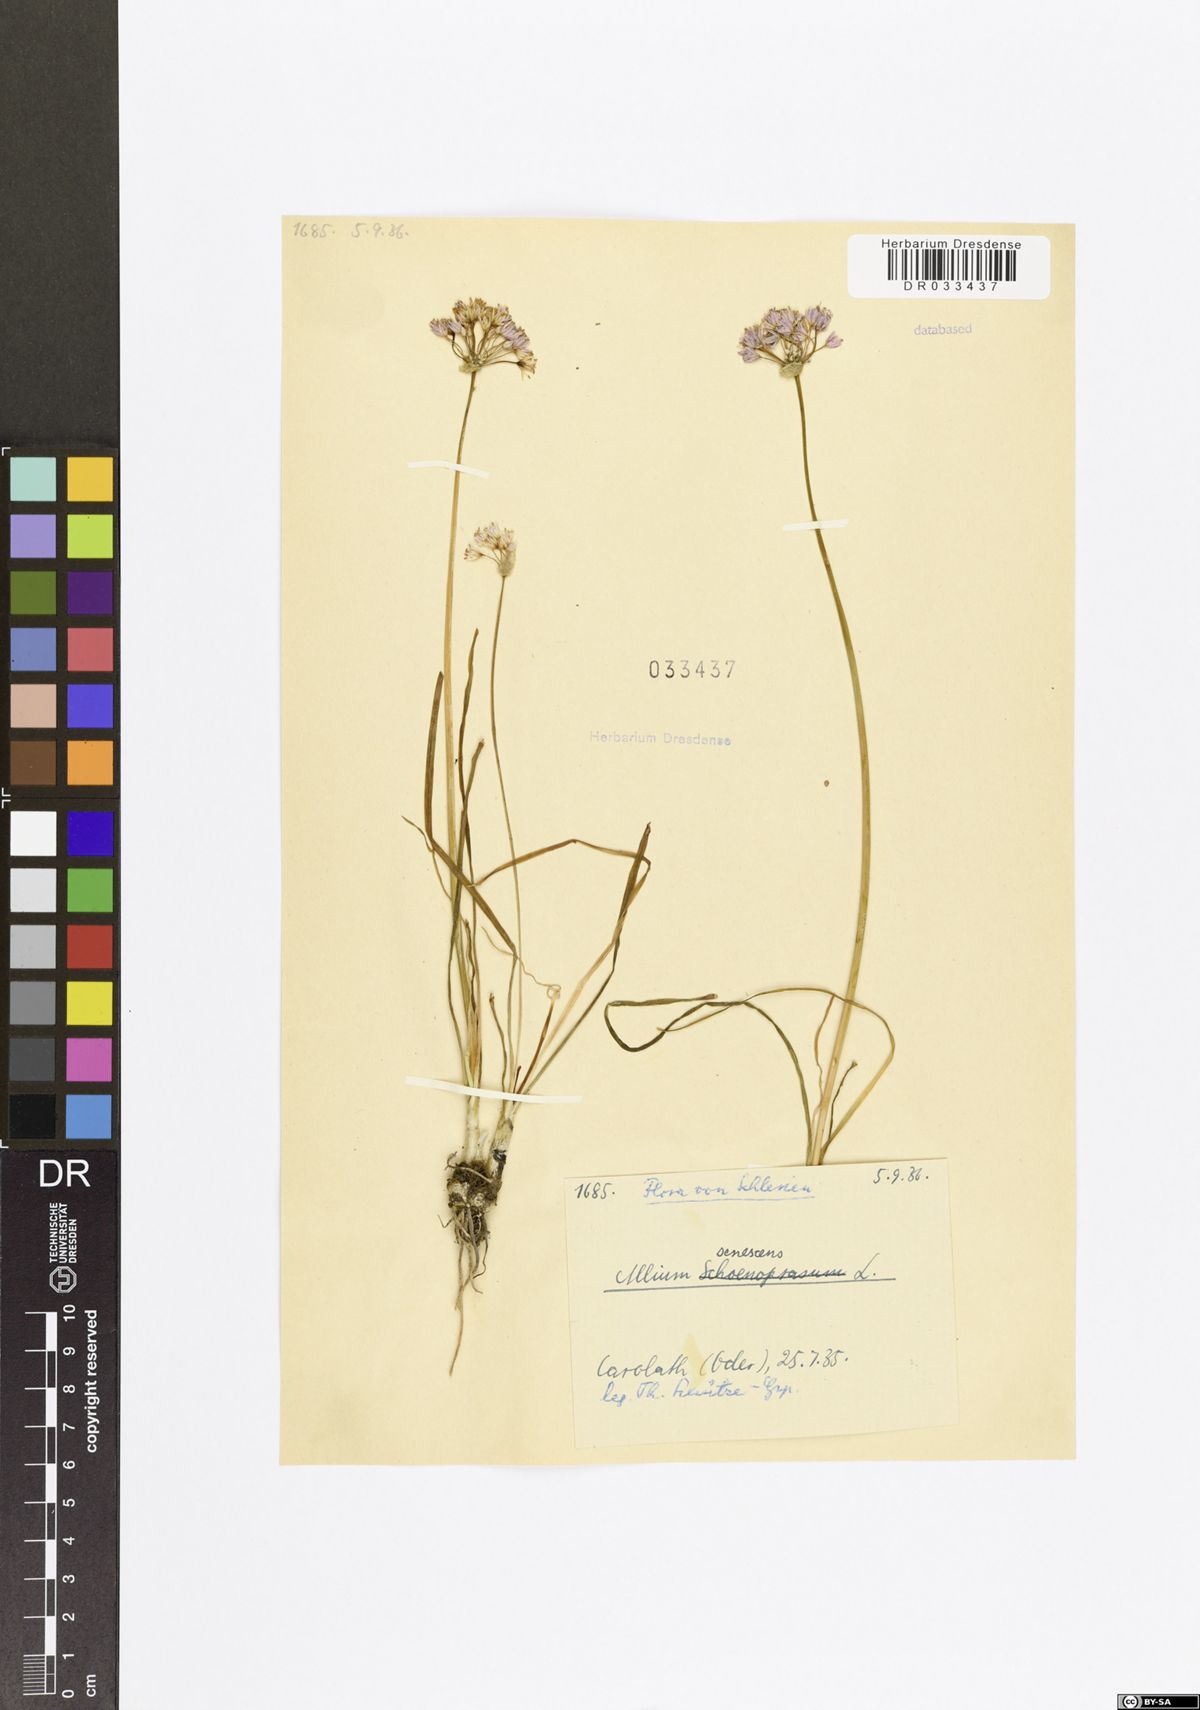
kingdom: Plantae
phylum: Tracheophyta
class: Liliopsida
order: Asparagales
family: Amaryllidaceae
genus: Allium
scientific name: Allium senescens
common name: German garlic
